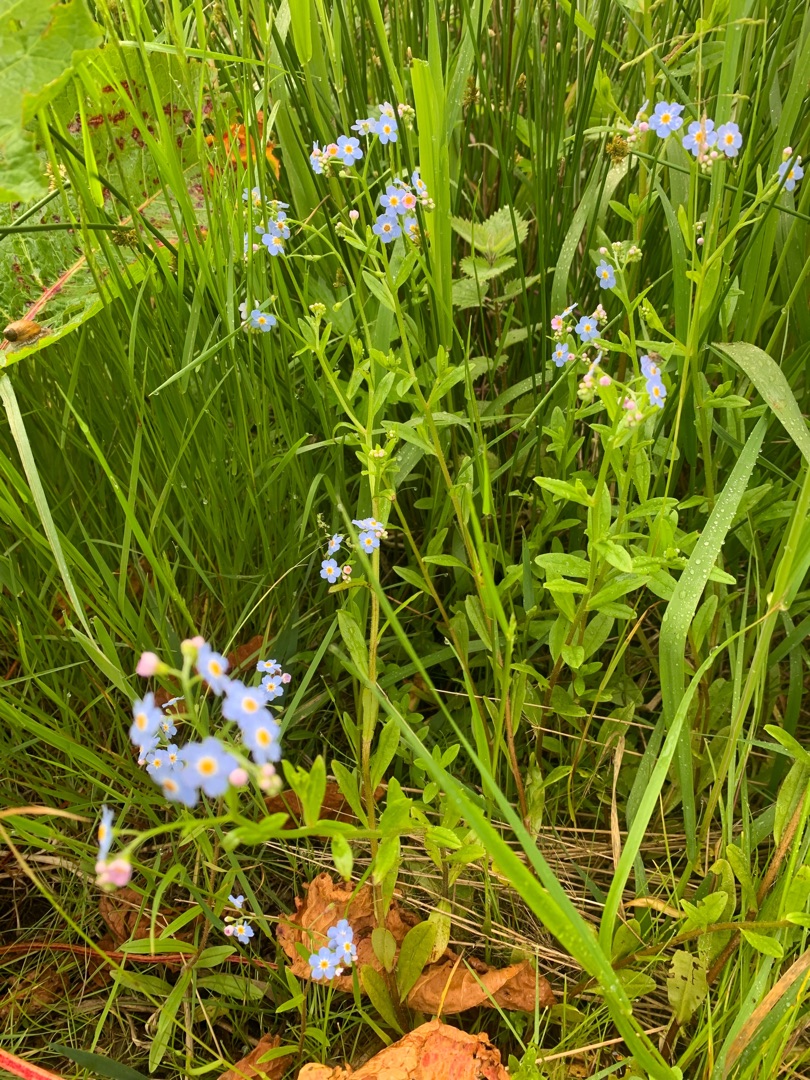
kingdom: Plantae
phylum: Tracheophyta
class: Magnoliopsida
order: Boraginales
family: Boraginaceae
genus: Myosotis
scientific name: Myosotis scorpioides
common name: Eng-forglemmigej
